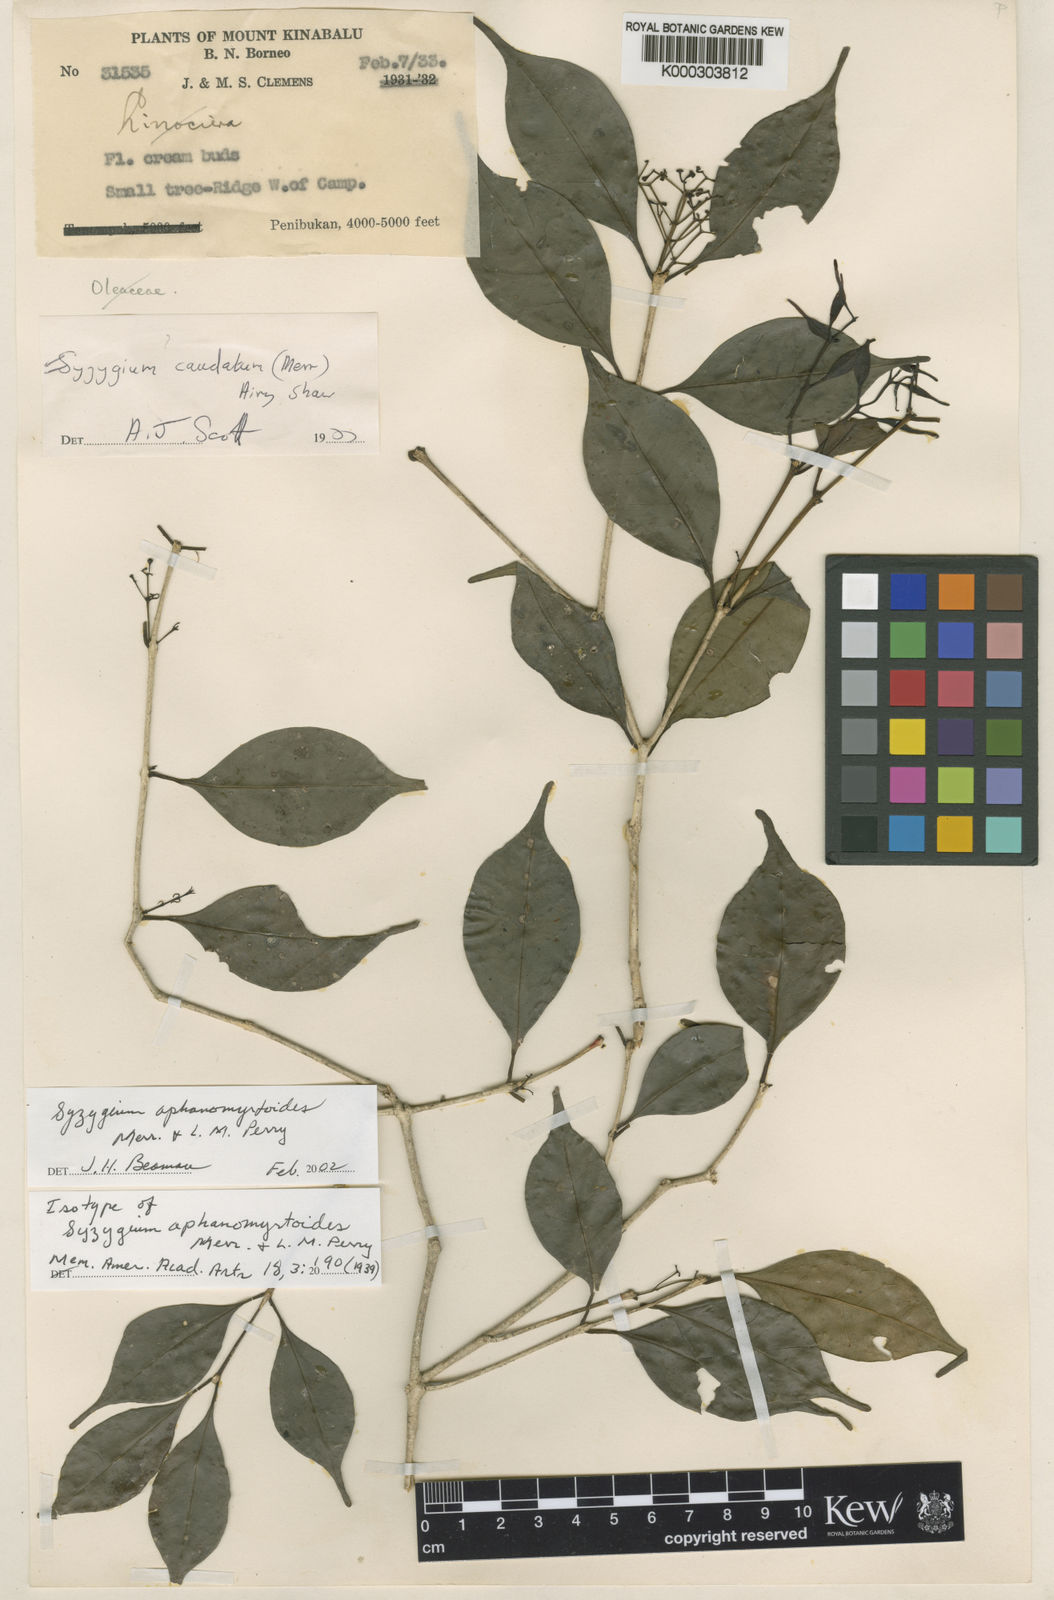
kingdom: Plantae
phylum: Tracheophyta
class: Magnoliopsida
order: Myrtales
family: Myrtaceae
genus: Syzygium
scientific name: Syzygium caudatum
